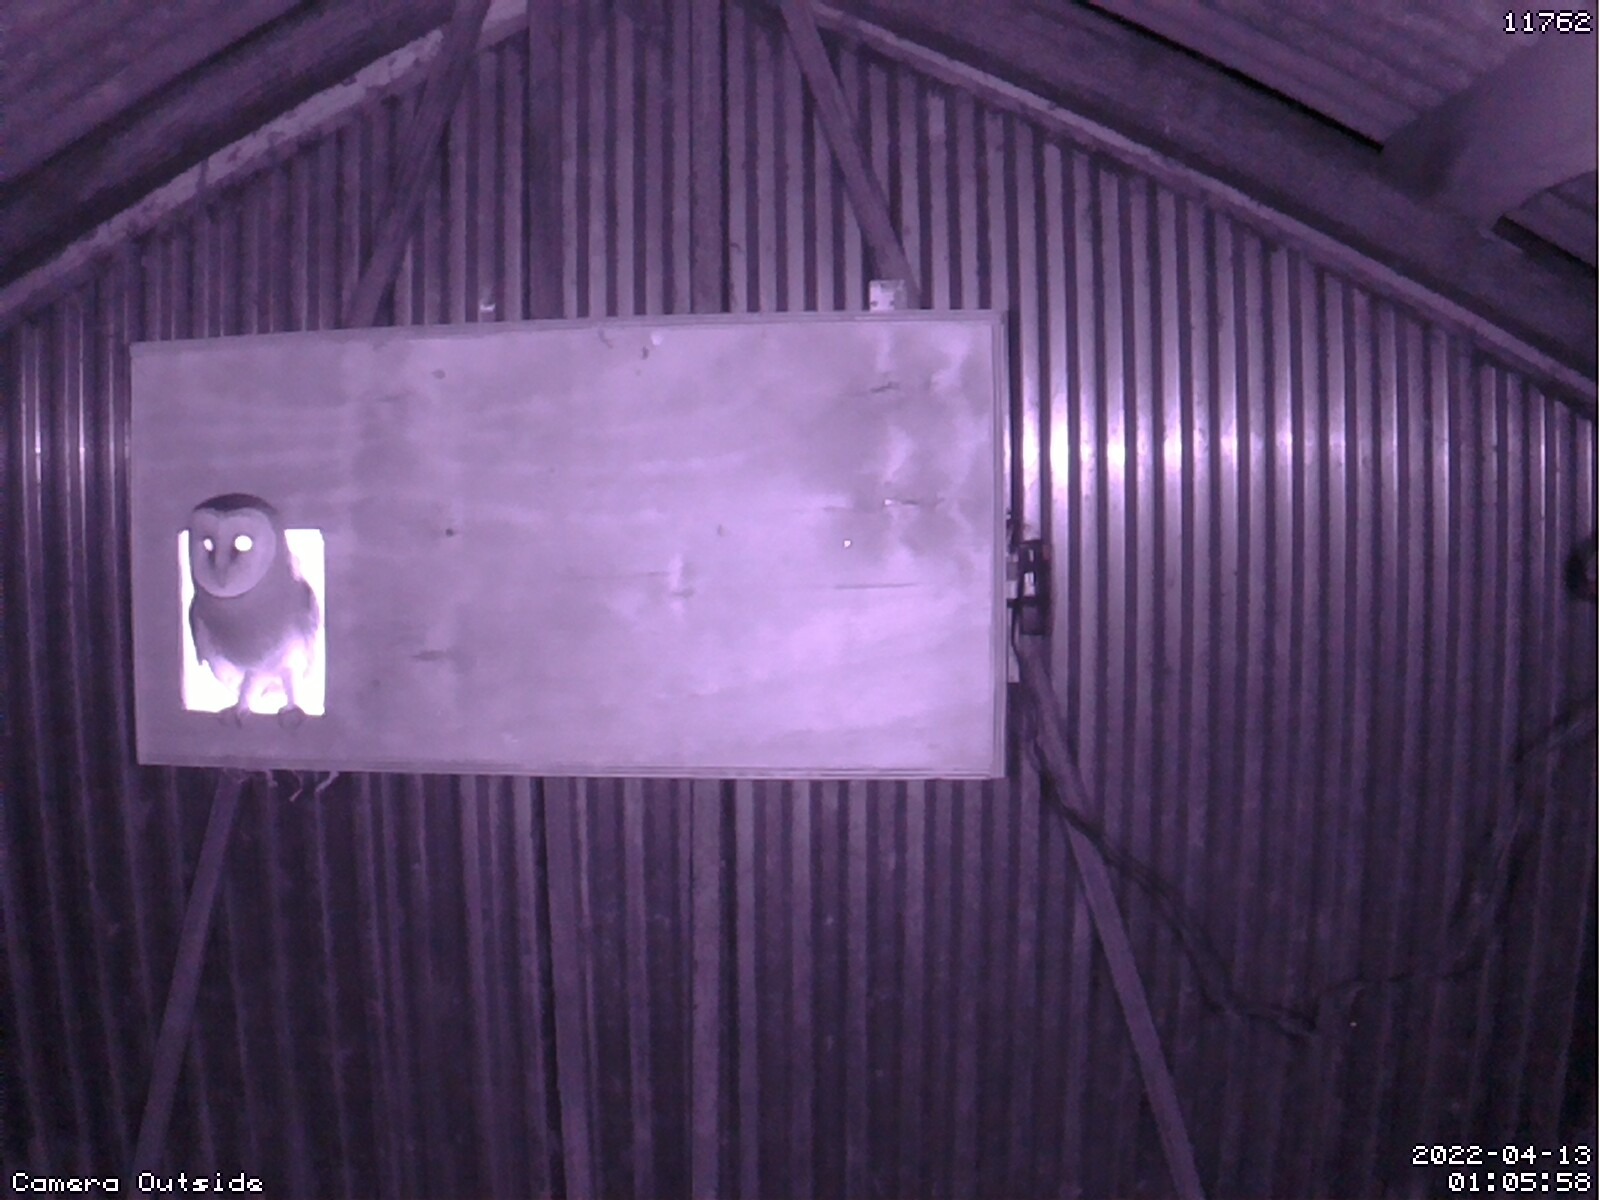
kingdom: Animalia
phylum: Chordata
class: Aves
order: Strigiformes
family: Tytonidae
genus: Tyto
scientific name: Tyto alba
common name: Slørugle
